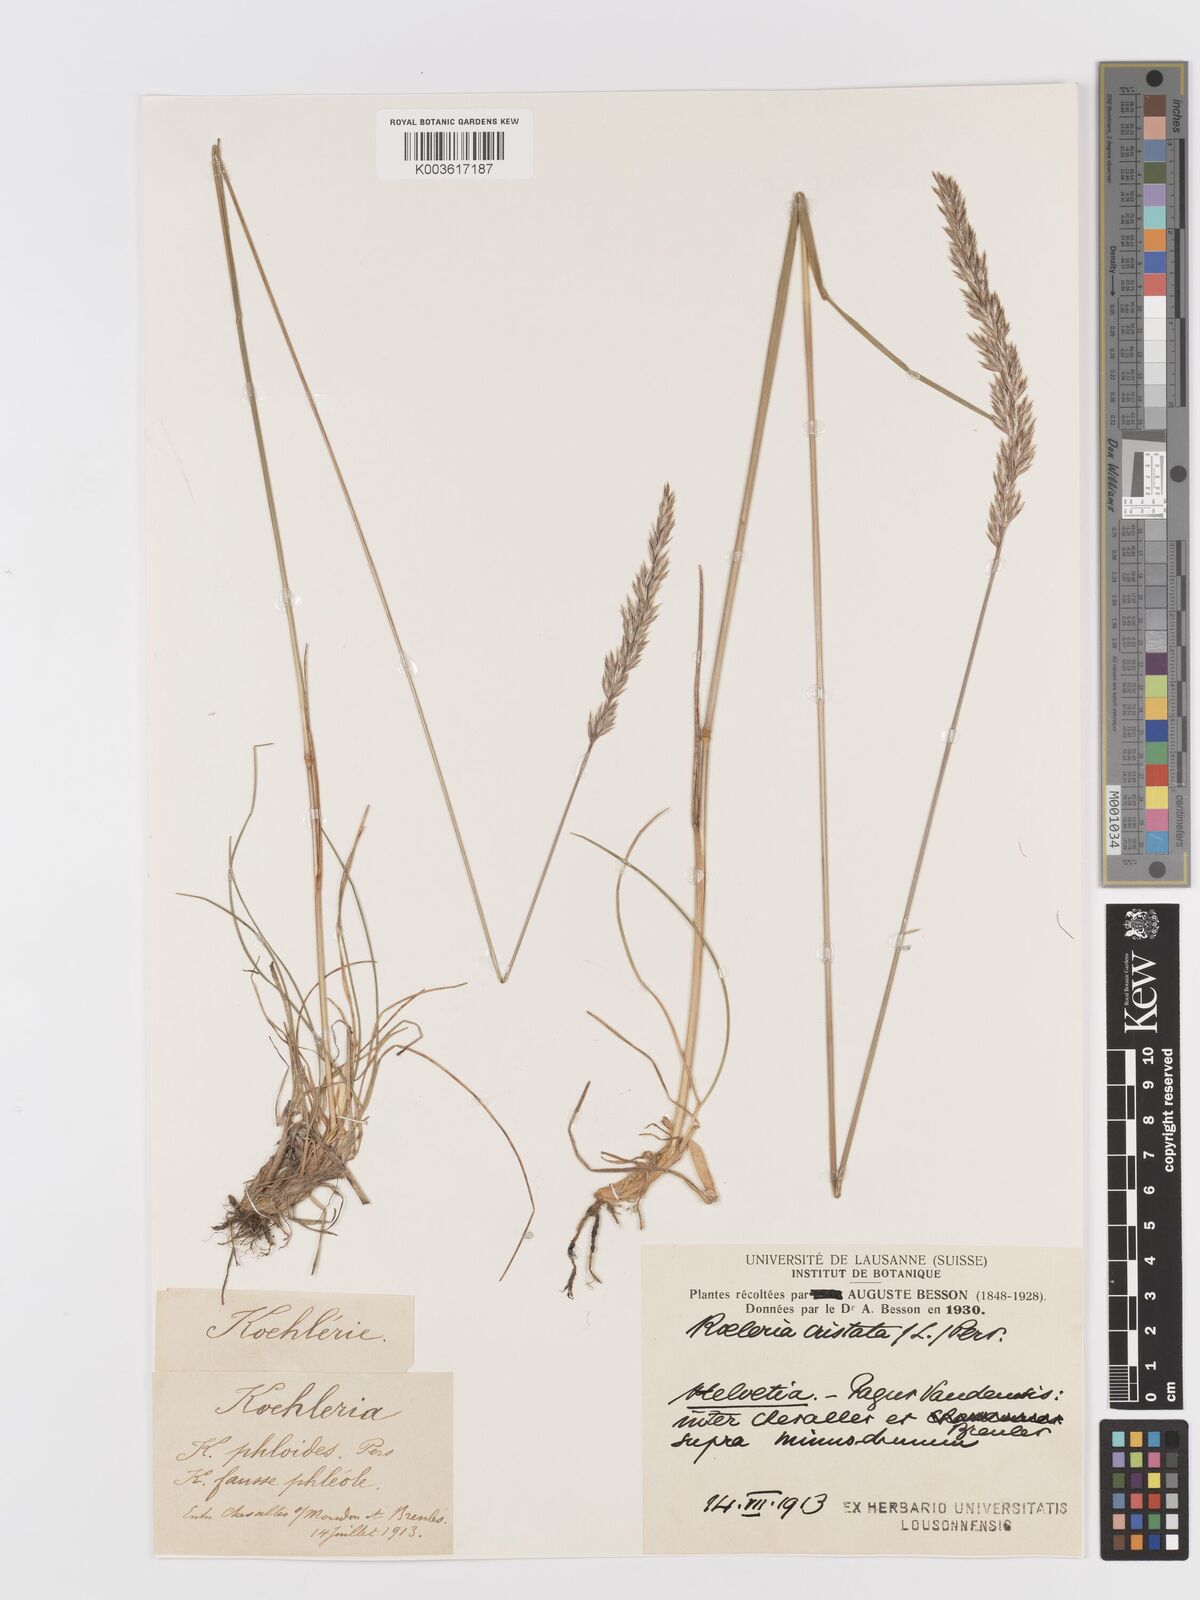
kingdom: Plantae
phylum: Tracheophyta
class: Liliopsida
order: Poales
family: Poaceae
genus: Koeleria
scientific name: Koeleria
